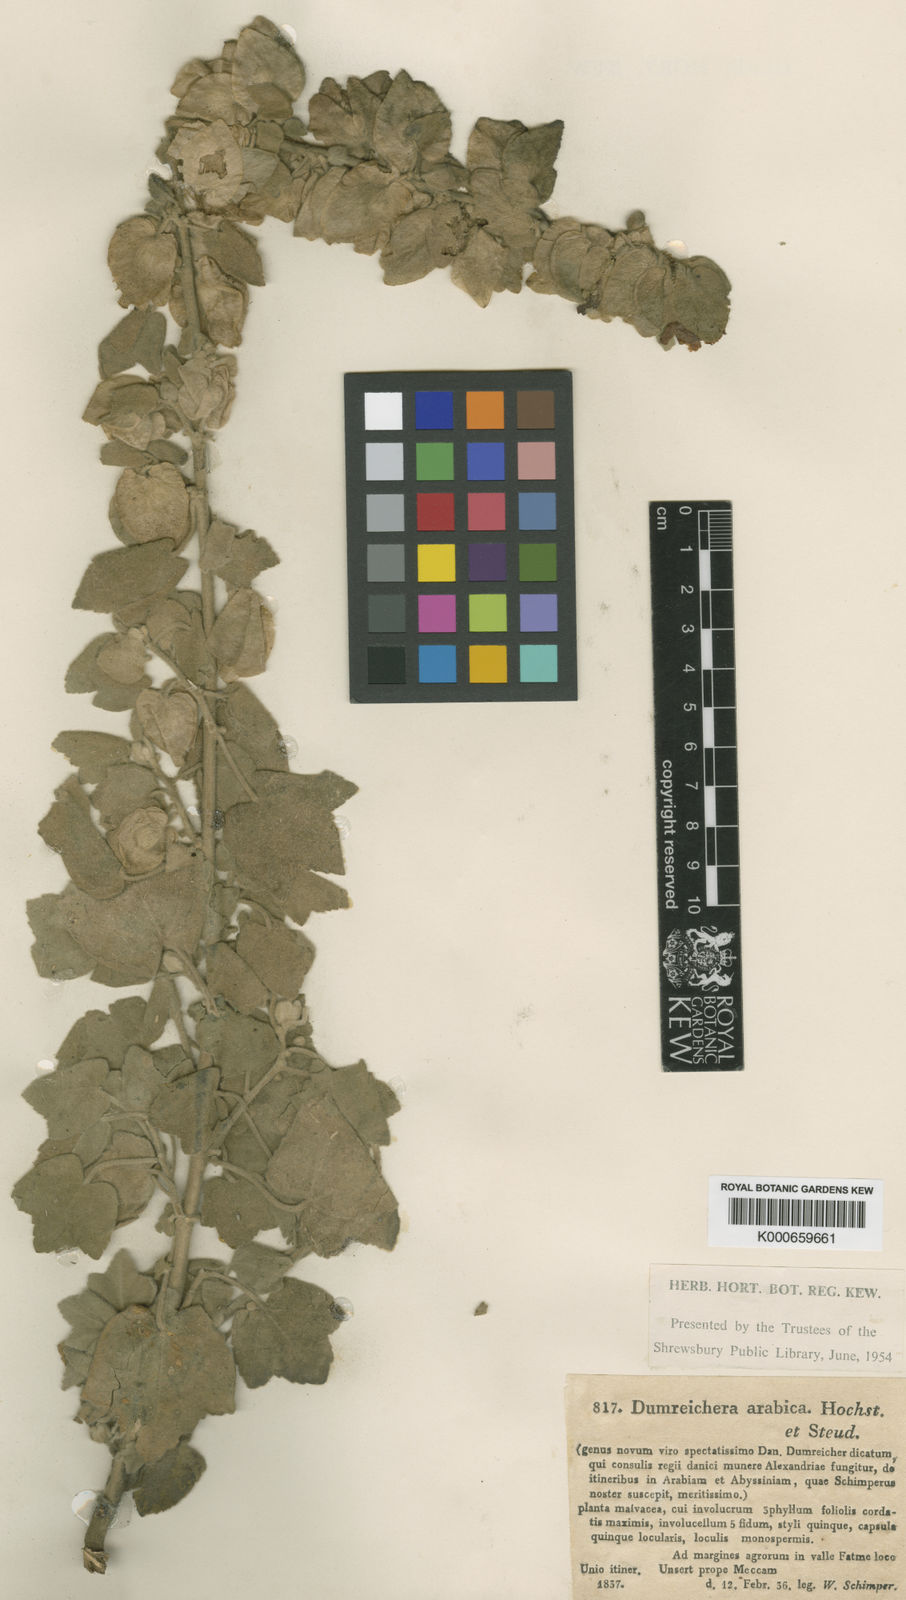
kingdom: Plantae
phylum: Tracheophyta
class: Magnoliopsida
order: Malvales
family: Malvaceae
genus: Senra
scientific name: Senra incana
